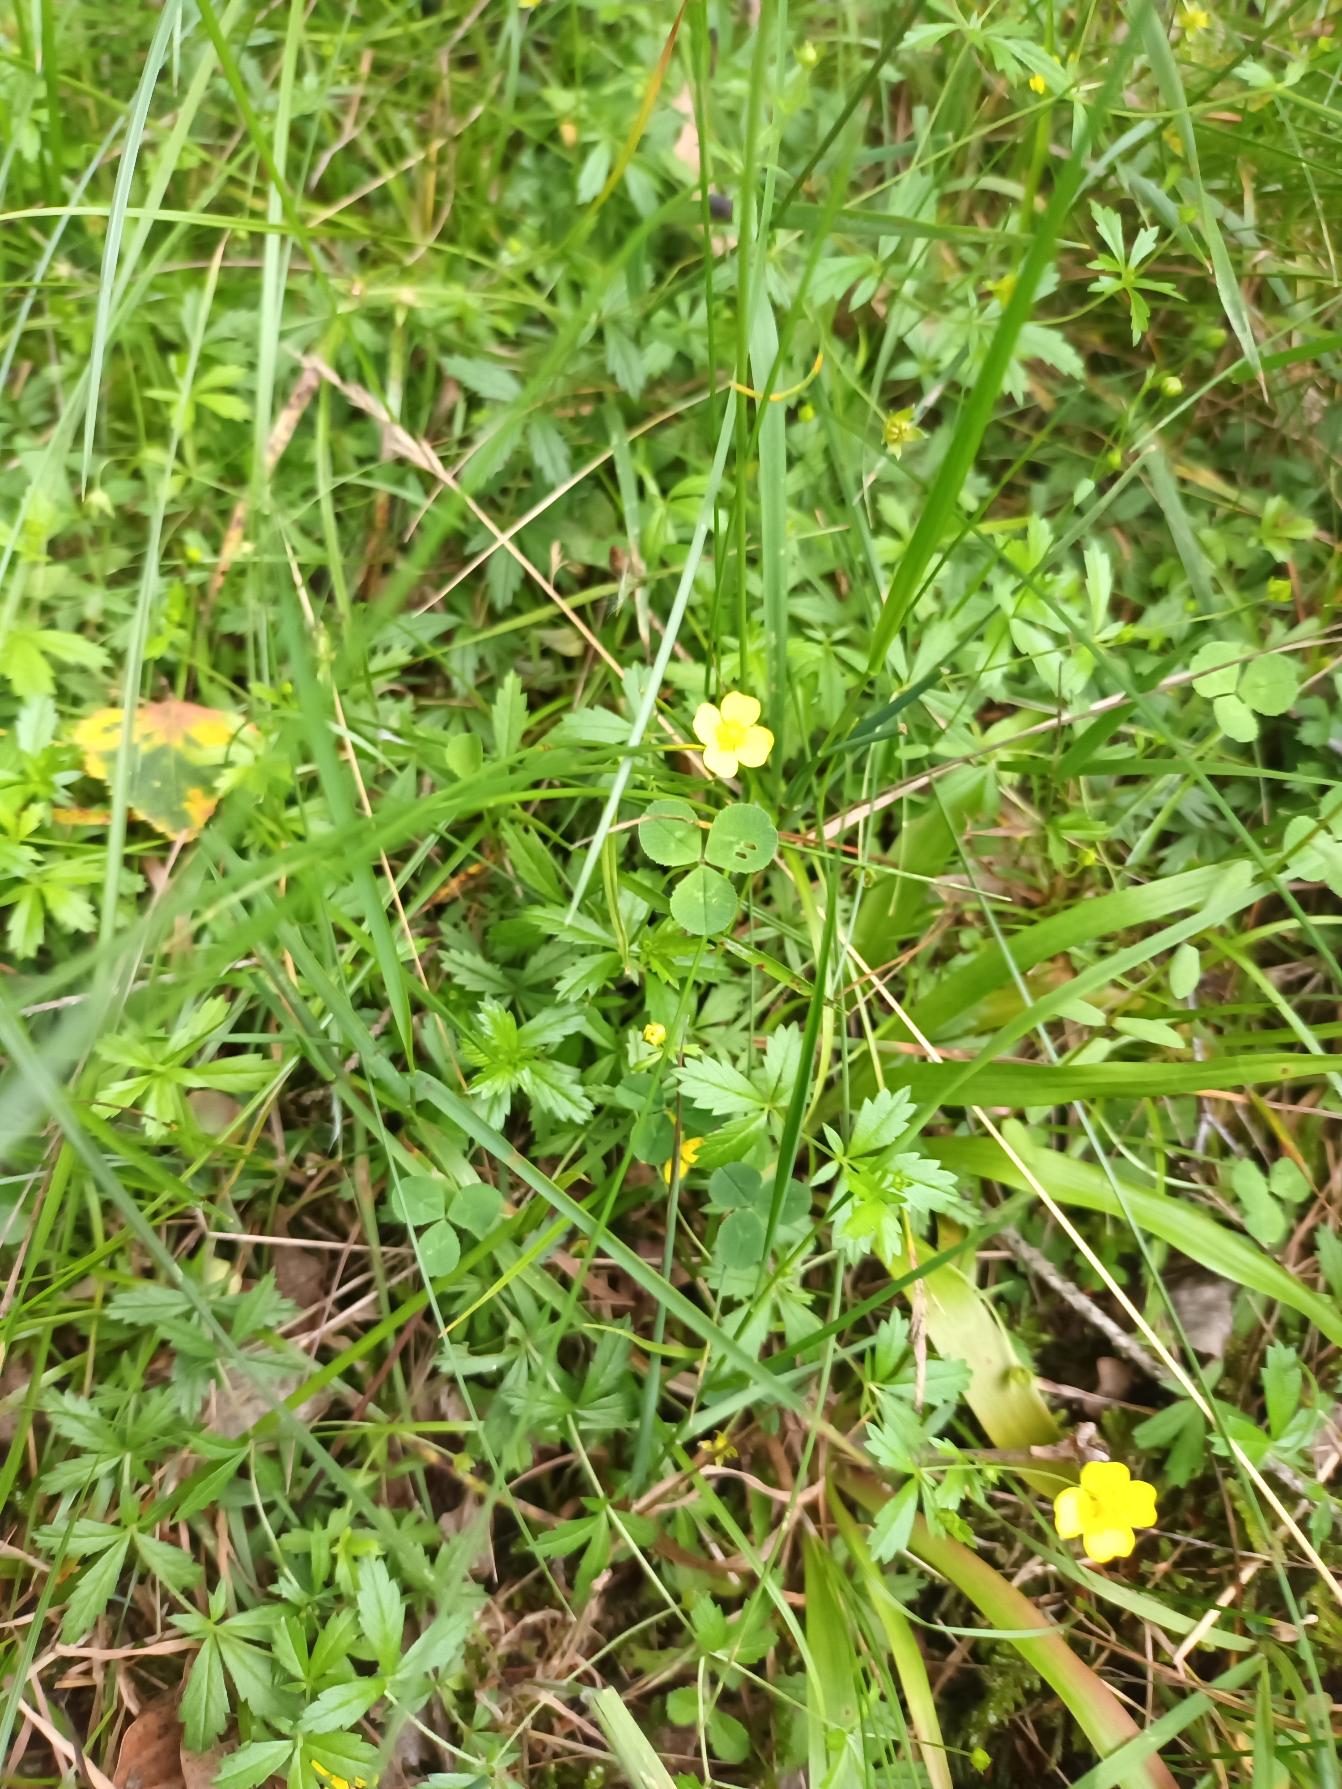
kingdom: Plantae
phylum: Tracheophyta
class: Magnoliopsida
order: Rosales
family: Rosaceae
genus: Potentilla
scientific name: Potentilla erecta
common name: Tormentil
